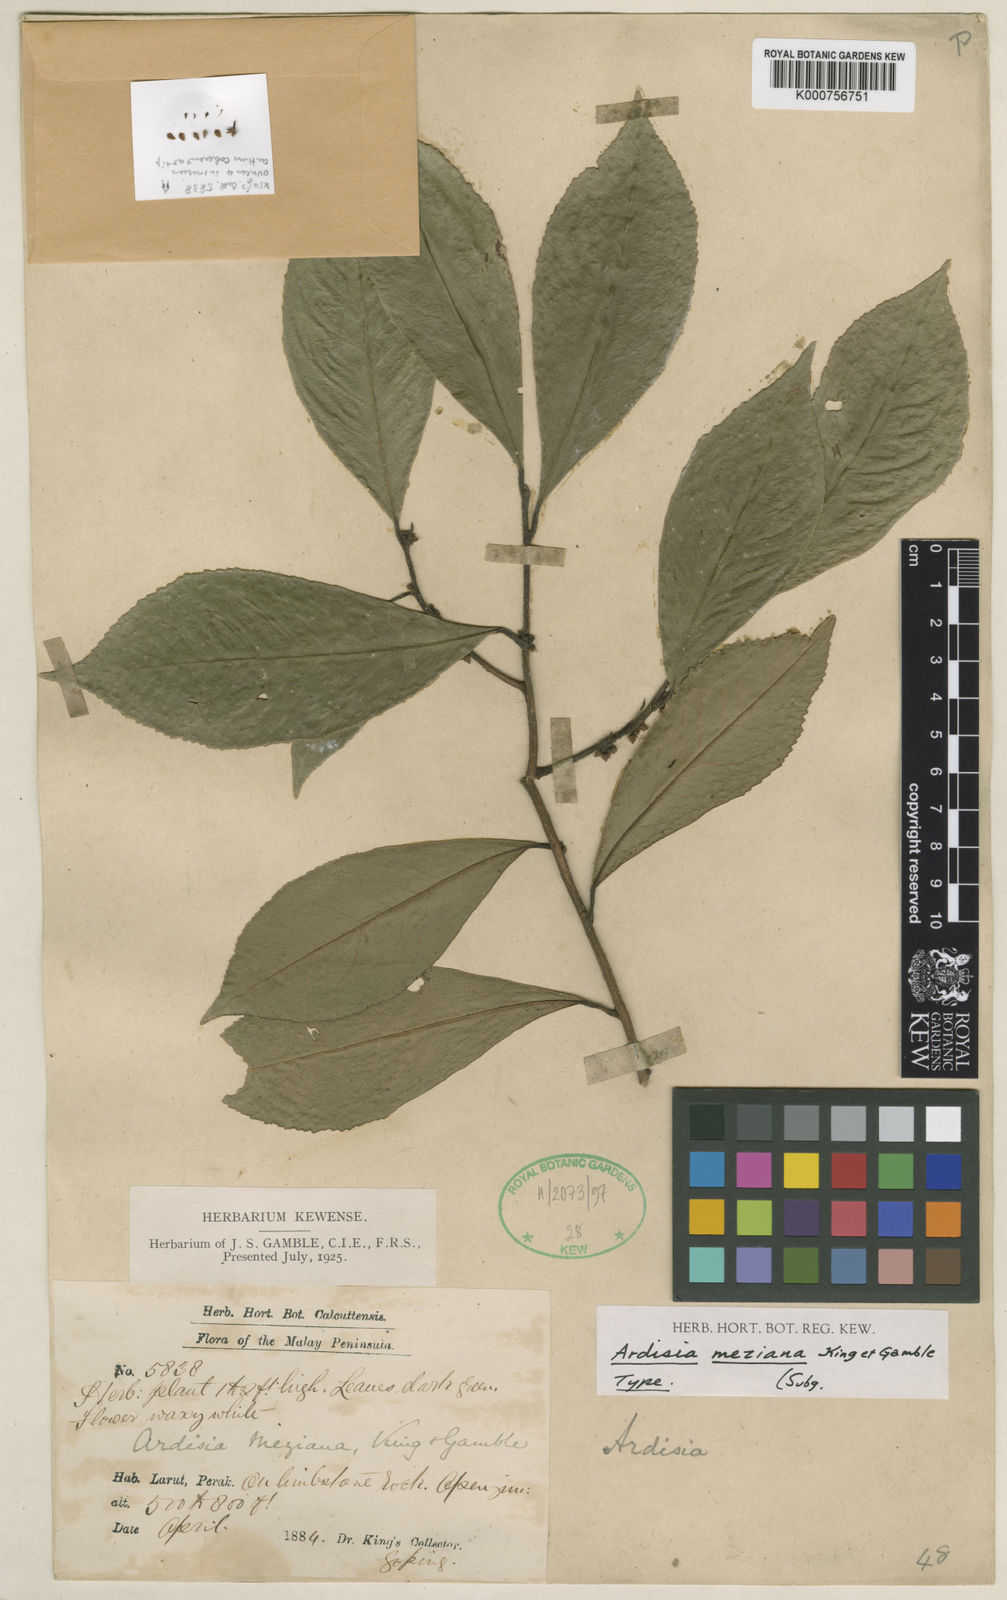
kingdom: Plantae
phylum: Tracheophyta
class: Magnoliopsida
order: Ericales
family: Primulaceae
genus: Ardisia
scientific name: Ardisia meziana
